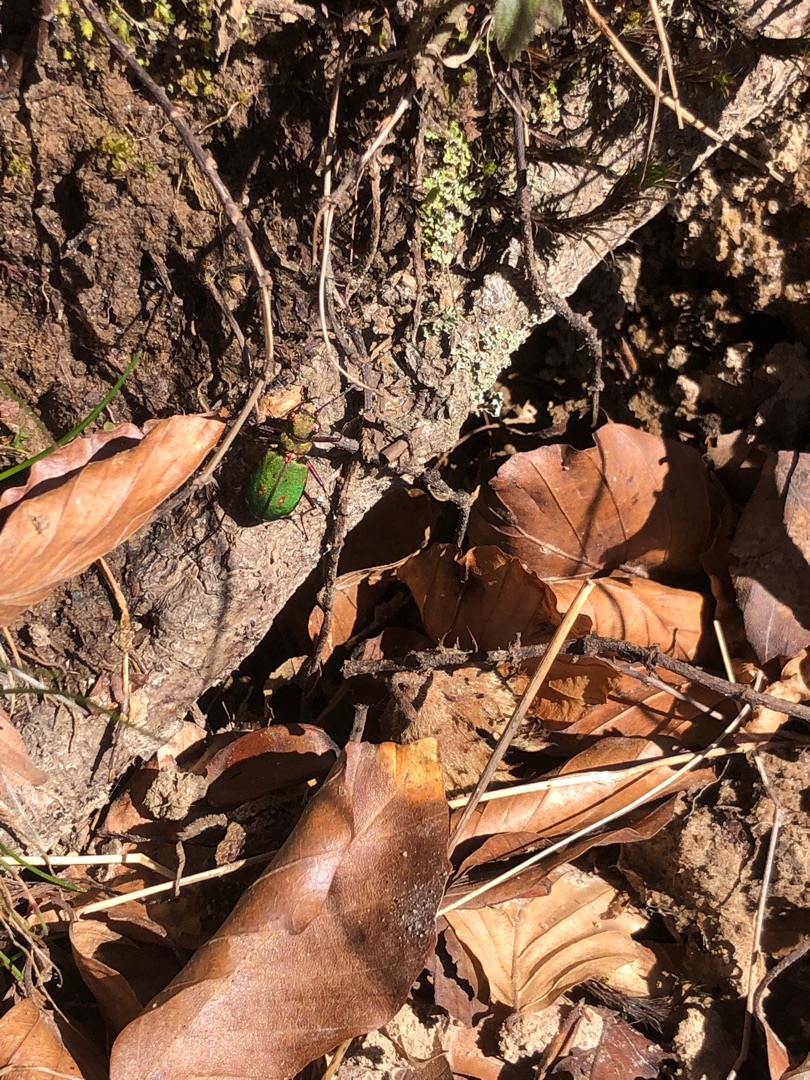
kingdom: Animalia
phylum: Arthropoda
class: Insecta
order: Coleoptera
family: Carabidae
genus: Cicindela
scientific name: Cicindela campestris
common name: Grøn sandspringer
